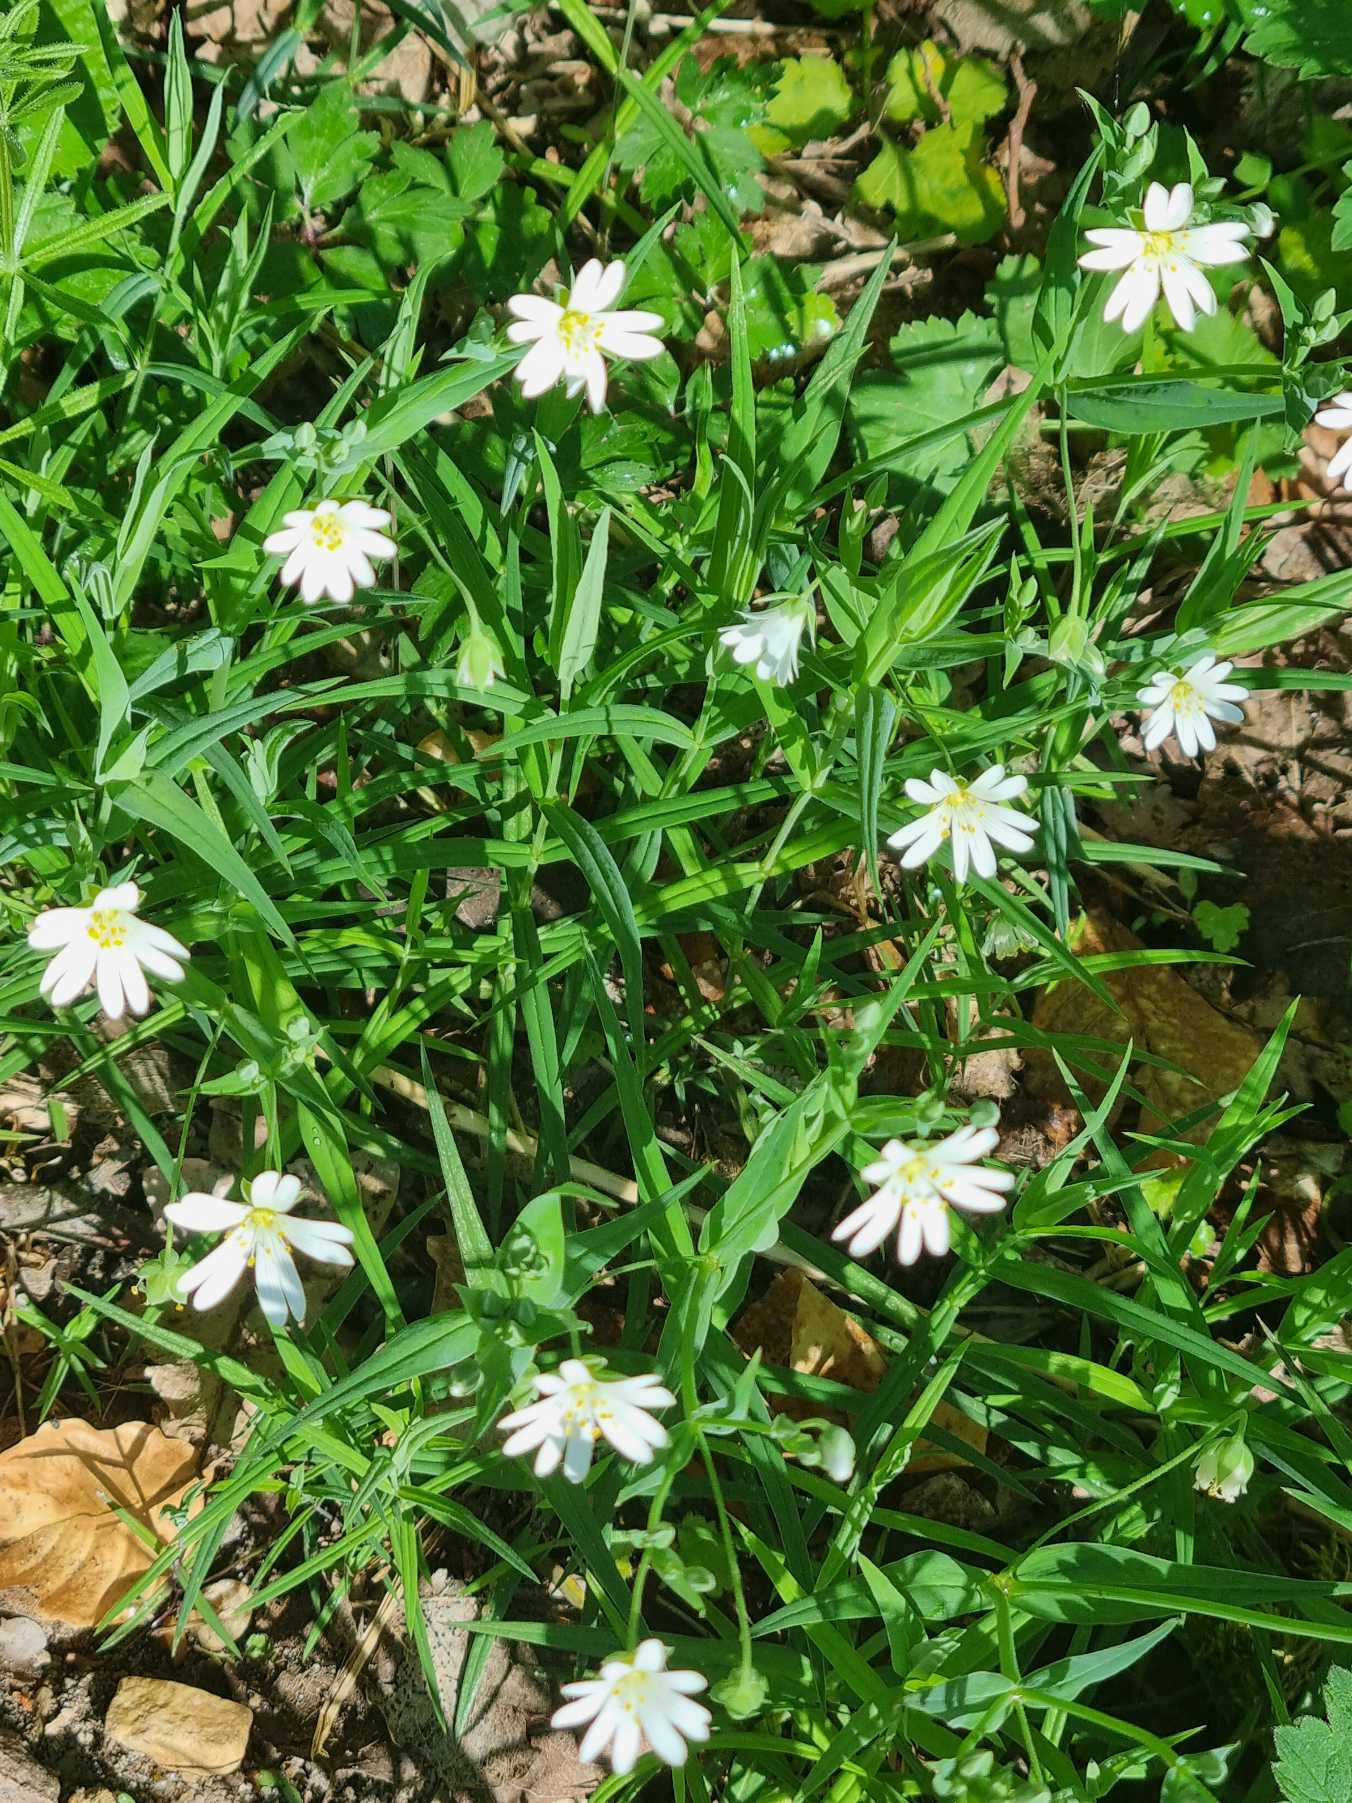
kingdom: Plantae
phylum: Tracheophyta
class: Magnoliopsida
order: Caryophyllales
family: Caryophyllaceae
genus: Rabelera
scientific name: Rabelera holostea
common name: Stor fladstjerne
